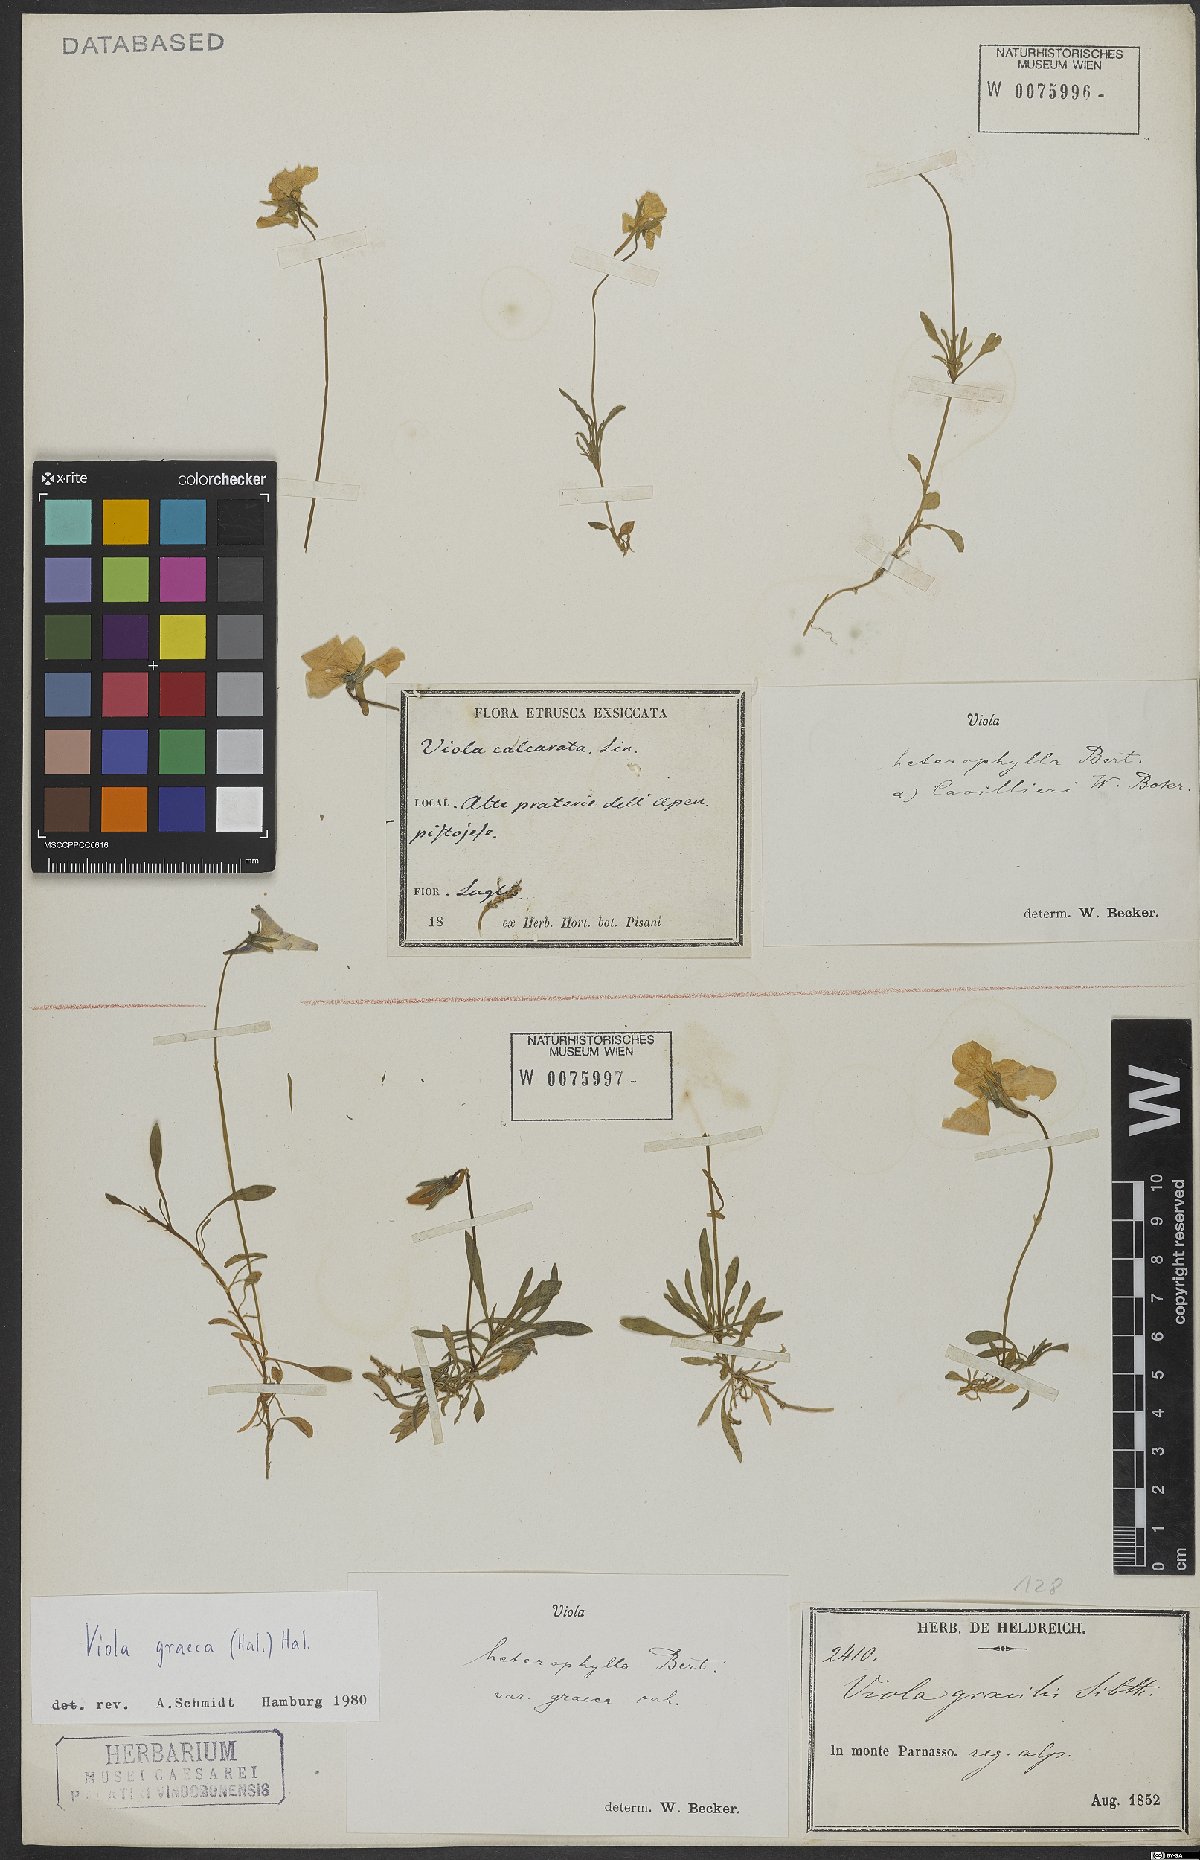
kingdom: Plantae
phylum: Tracheophyta
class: Magnoliopsida
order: Malpighiales
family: Violaceae
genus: Viola
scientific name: Viola calcarata
